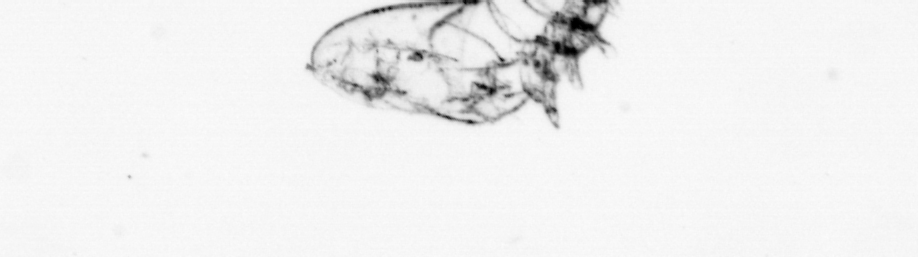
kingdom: Animalia
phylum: Arthropoda
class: Maxillopoda
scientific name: Maxillopoda
